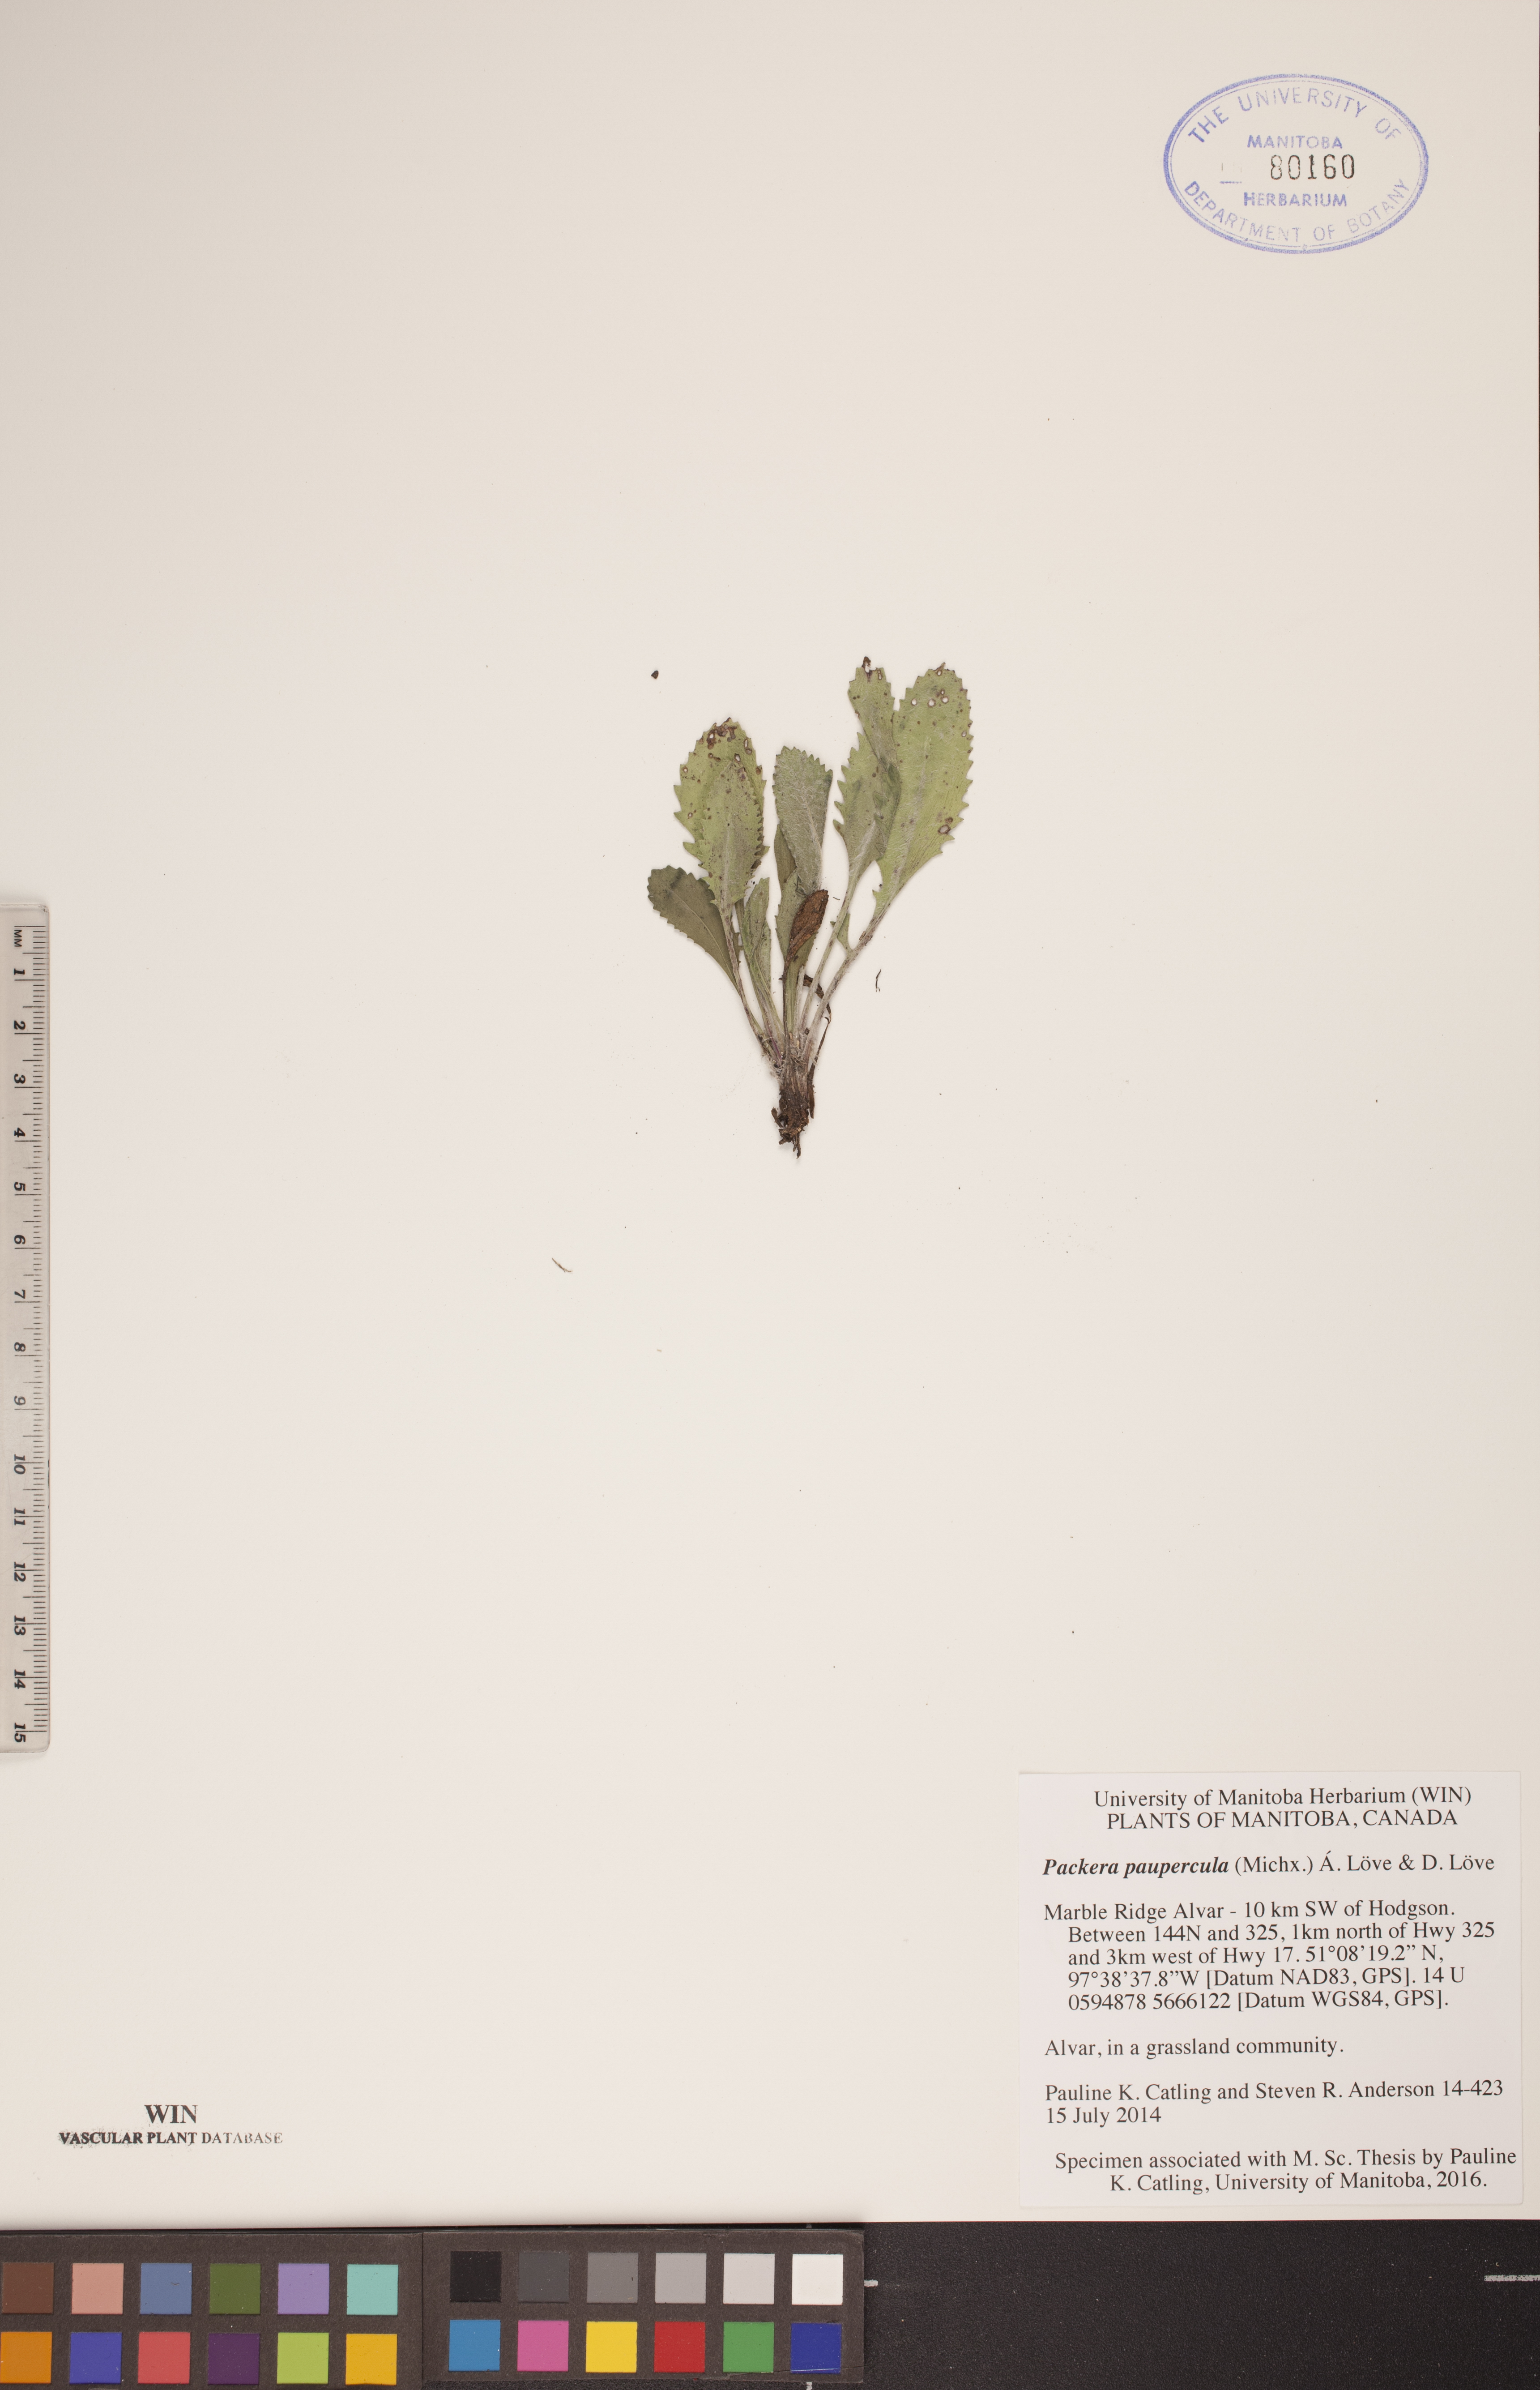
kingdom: Plantae
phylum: Tracheophyta
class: Magnoliopsida
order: Asterales
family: Asteraceae
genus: Packera
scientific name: Packera paupercula
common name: Balsam groundsel
